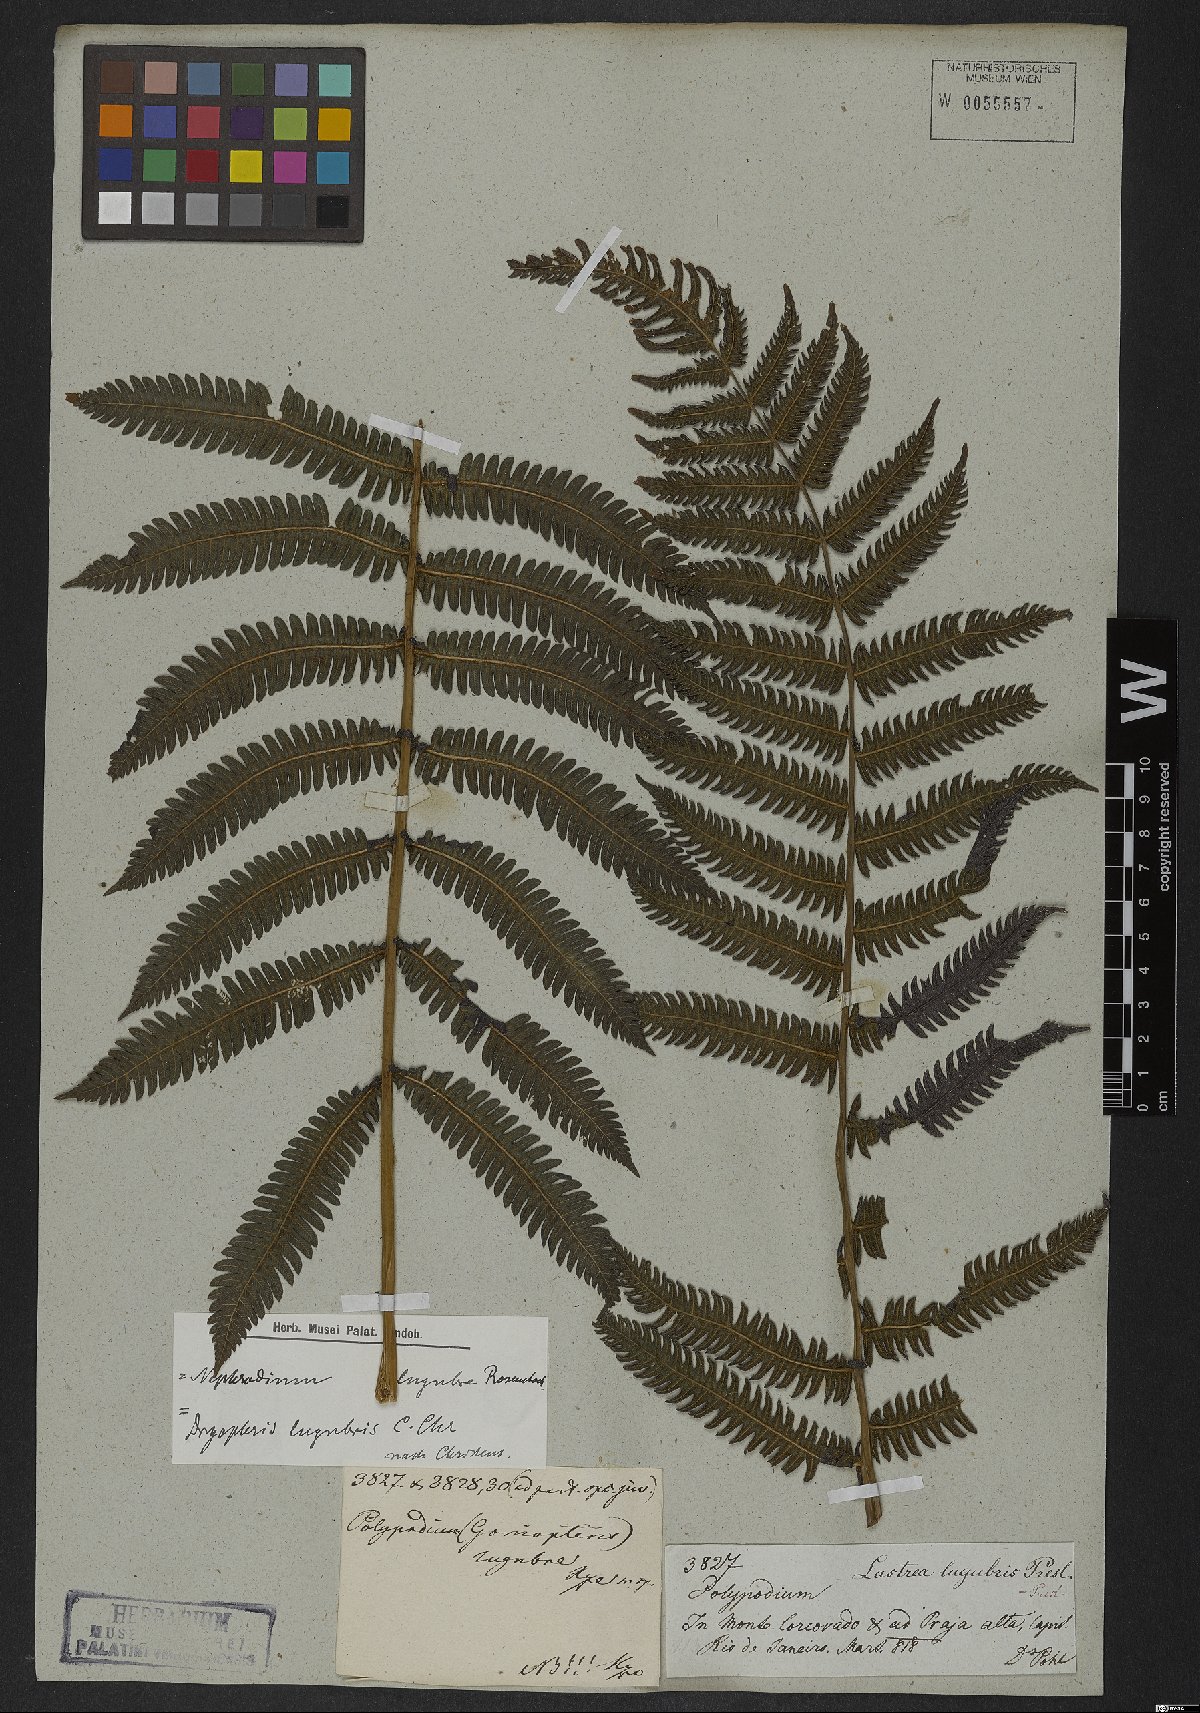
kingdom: Plantae
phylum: Tracheophyta
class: Polypodiopsida
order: Polypodiales
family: Thelypteridaceae
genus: Goniopteris
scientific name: Goniopteris lugubris
